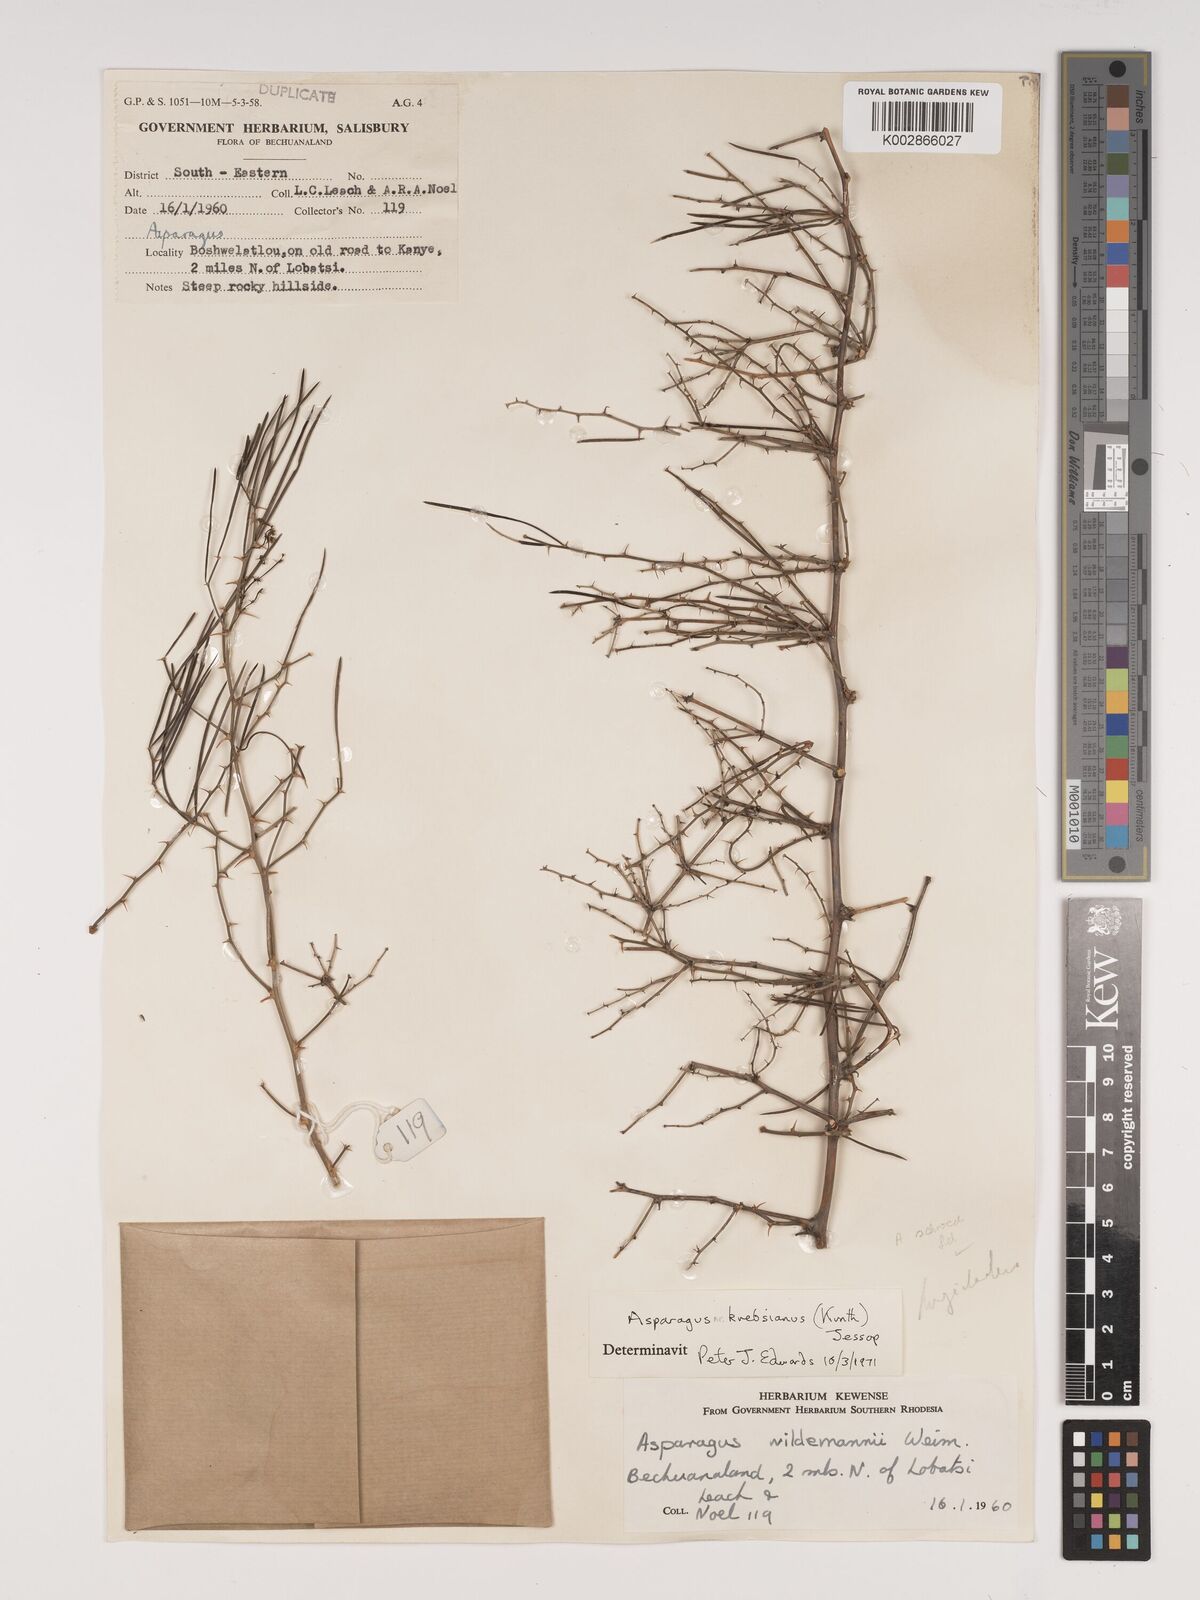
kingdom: Plantae
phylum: Tracheophyta
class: Liliopsida
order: Asparagales
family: Asparagaceae
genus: Asparagus
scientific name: Asparagus schroederi
